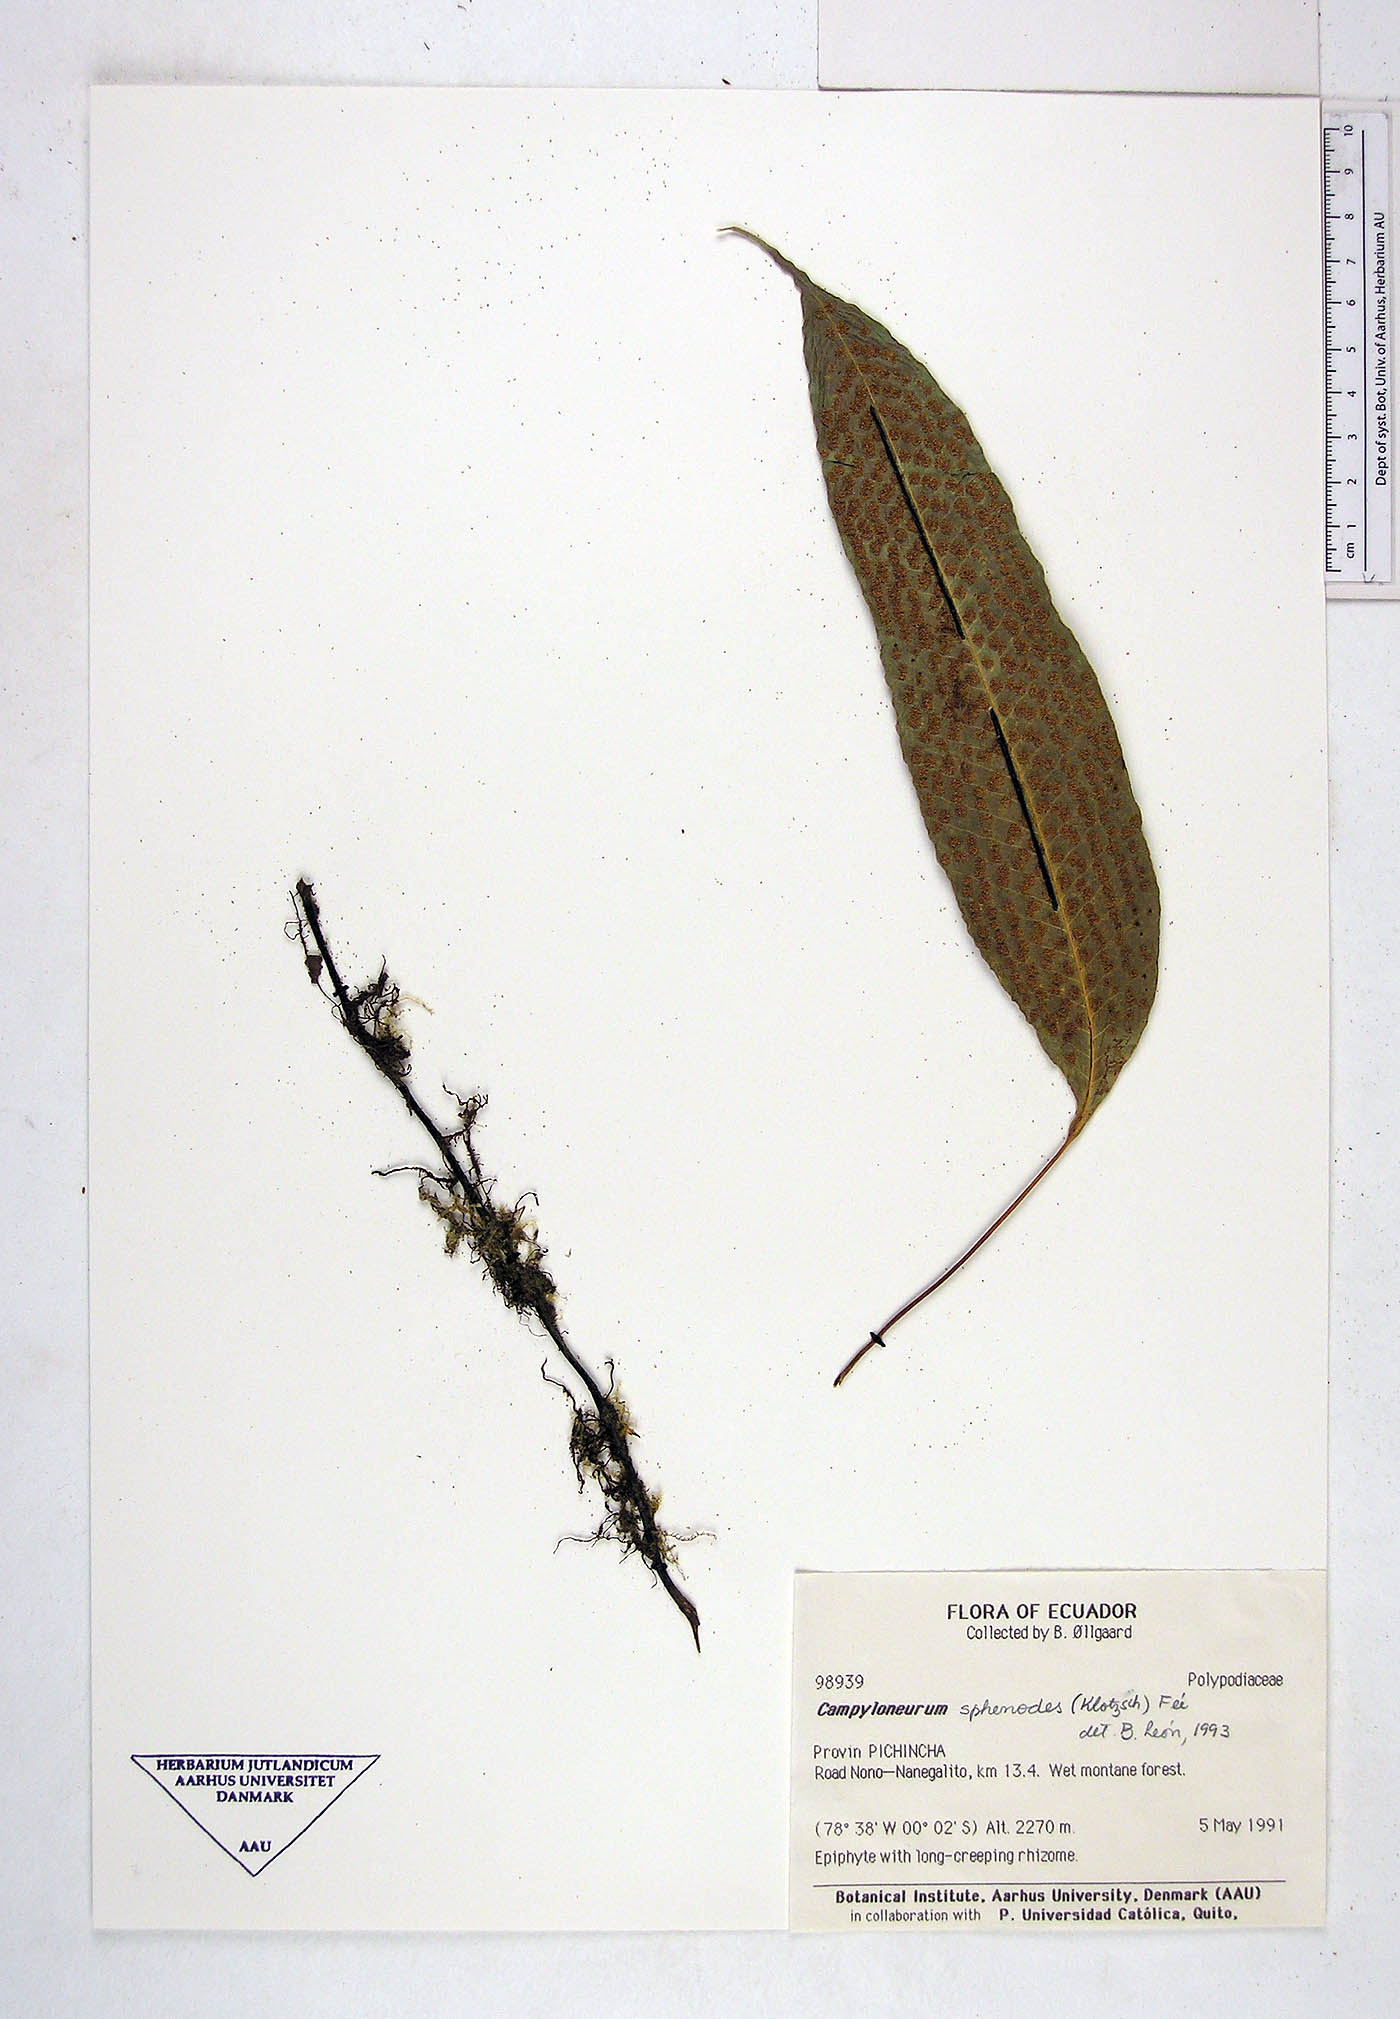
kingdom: Plantae
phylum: Tracheophyta
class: Polypodiopsida
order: Polypodiales
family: Polypodiaceae
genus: Campyloneurum
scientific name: Campyloneurum sphenodes
